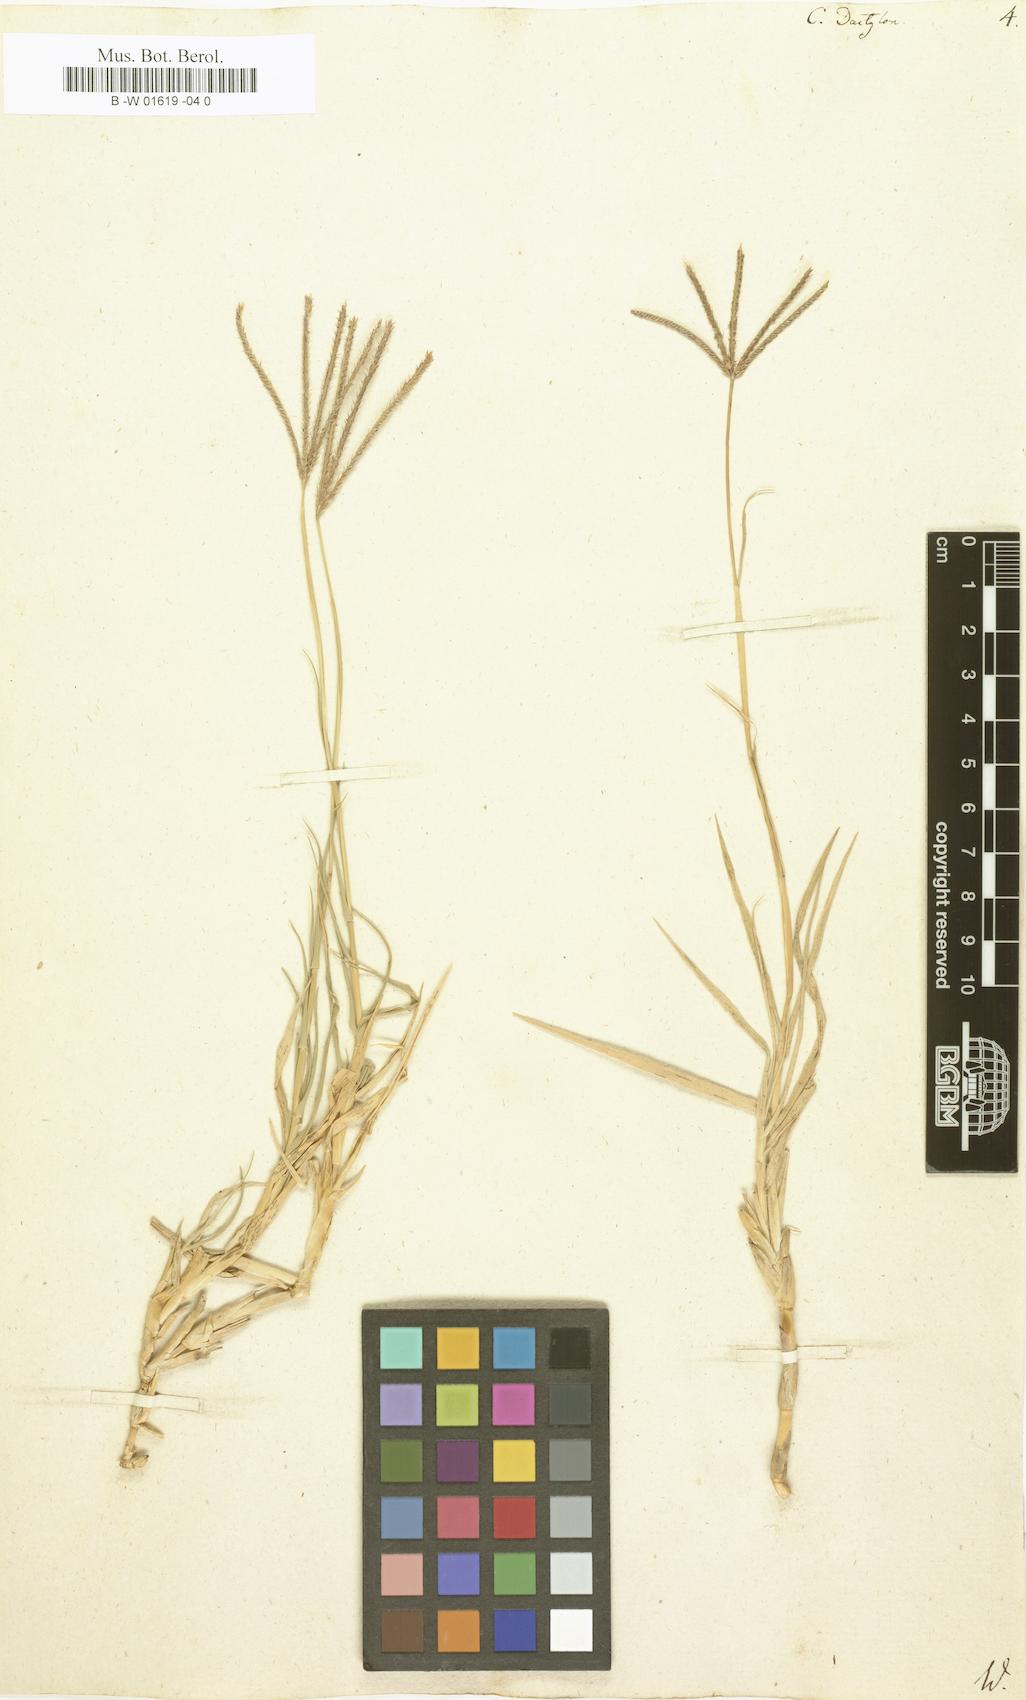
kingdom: Plantae
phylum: Tracheophyta
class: Liliopsida
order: Poales
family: Poaceae
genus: Cynodon
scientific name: Cynodon dactylon
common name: Bermuda grass
